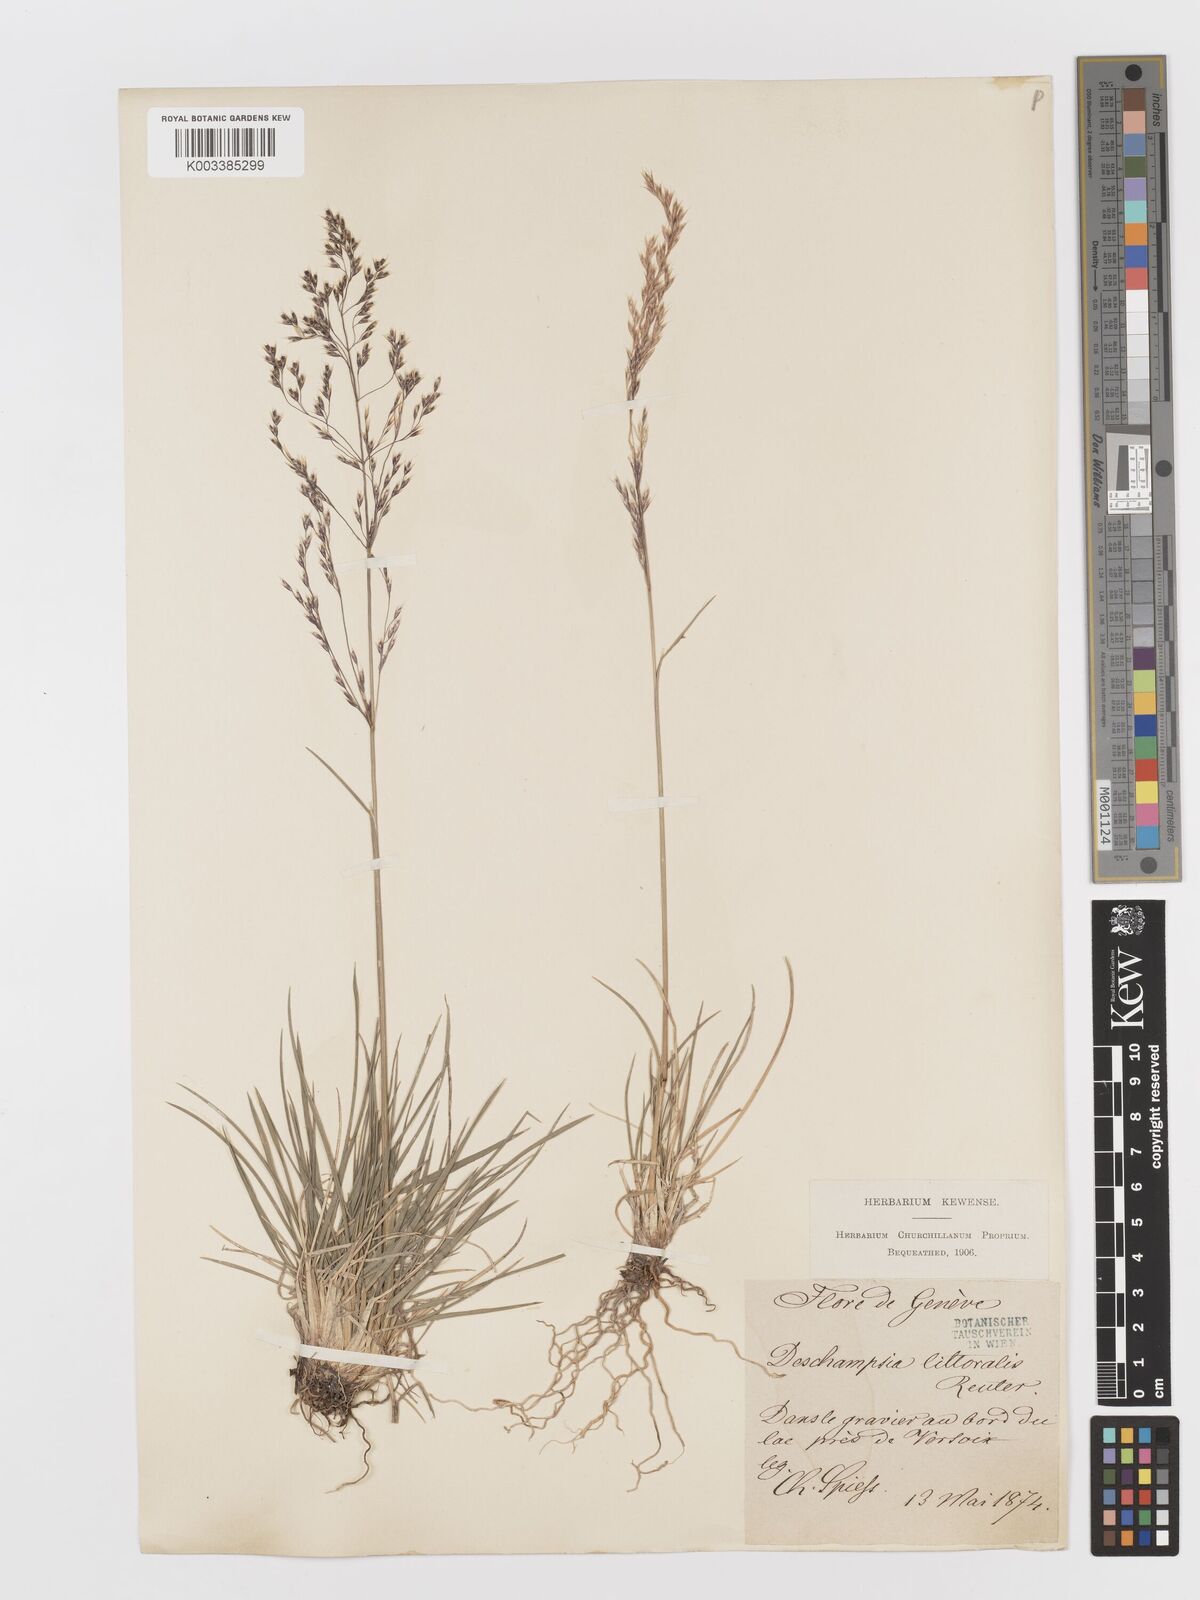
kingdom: Plantae
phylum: Tracheophyta
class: Liliopsida
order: Poales
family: Poaceae
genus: Deschampsia
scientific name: Deschampsia cespitosa
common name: Tufted hair-grass
